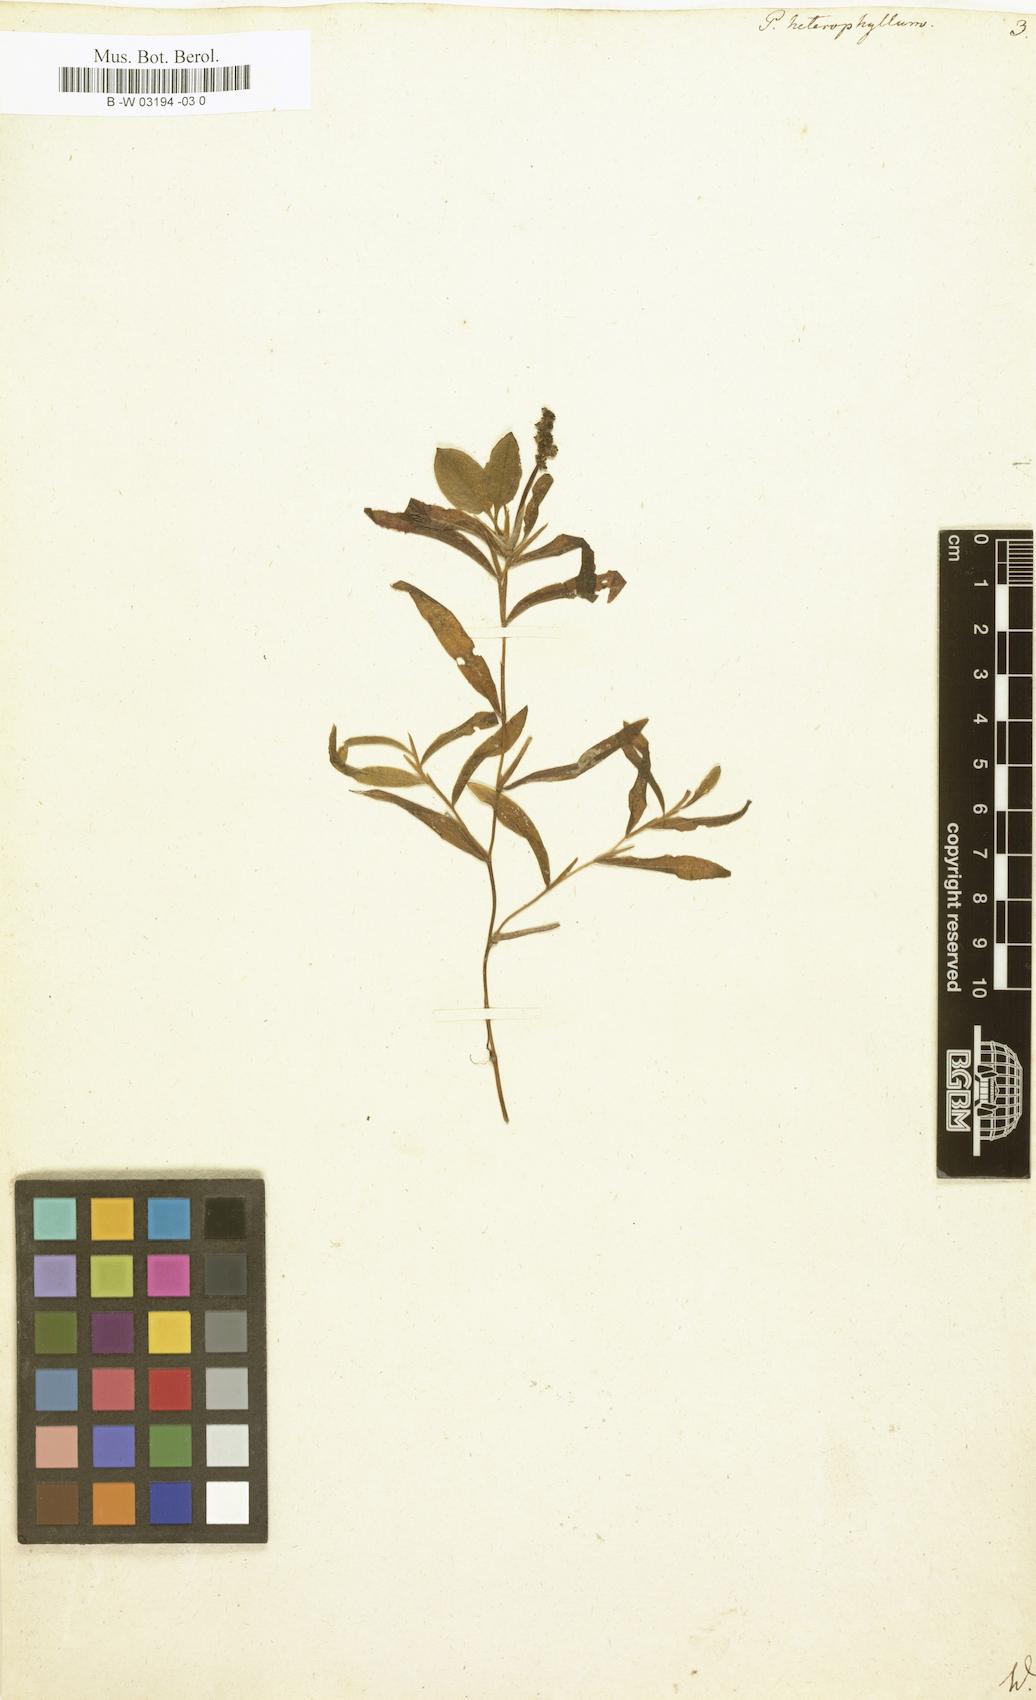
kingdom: Plantae
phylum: Tracheophyta
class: Liliopsida
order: Alismatales
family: Potamogetonaceae
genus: Potamogeton
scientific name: Potamogeton heterophyllus
